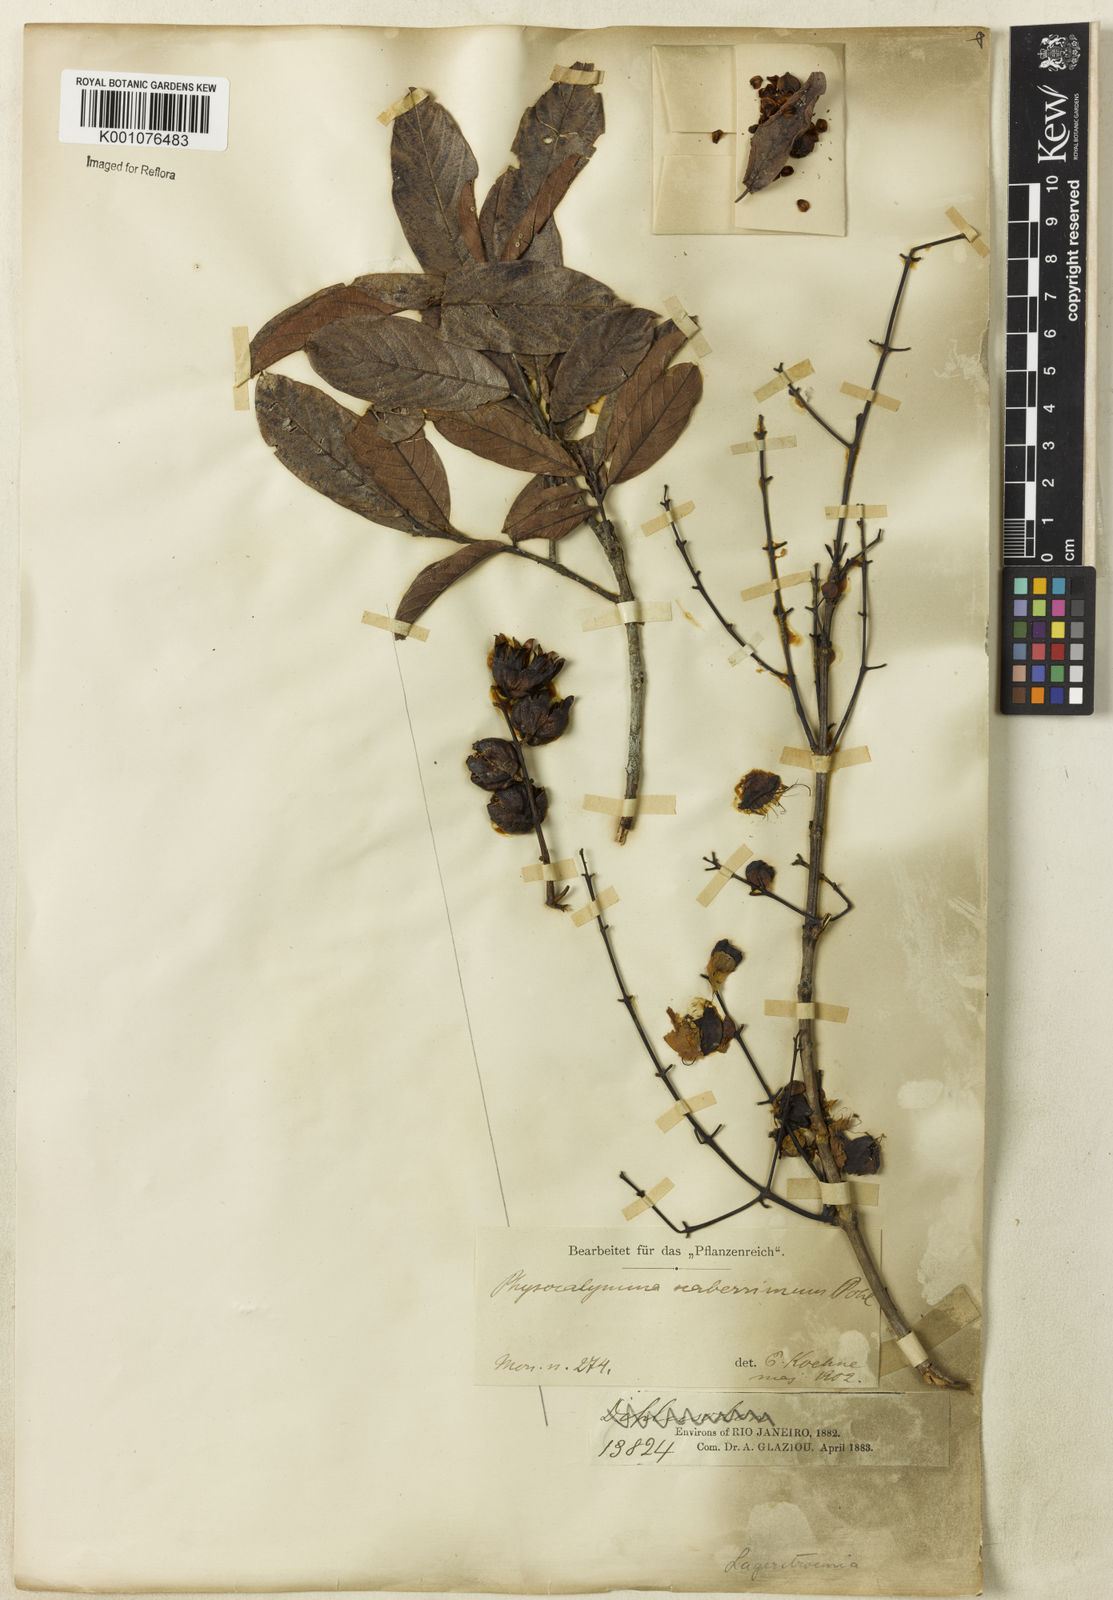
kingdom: Plantae
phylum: Tracheophyta
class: Magnoliopsida
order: Myrtales
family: Lythraceae
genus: Physocalymma
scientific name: Physocalymma scaberrimum
